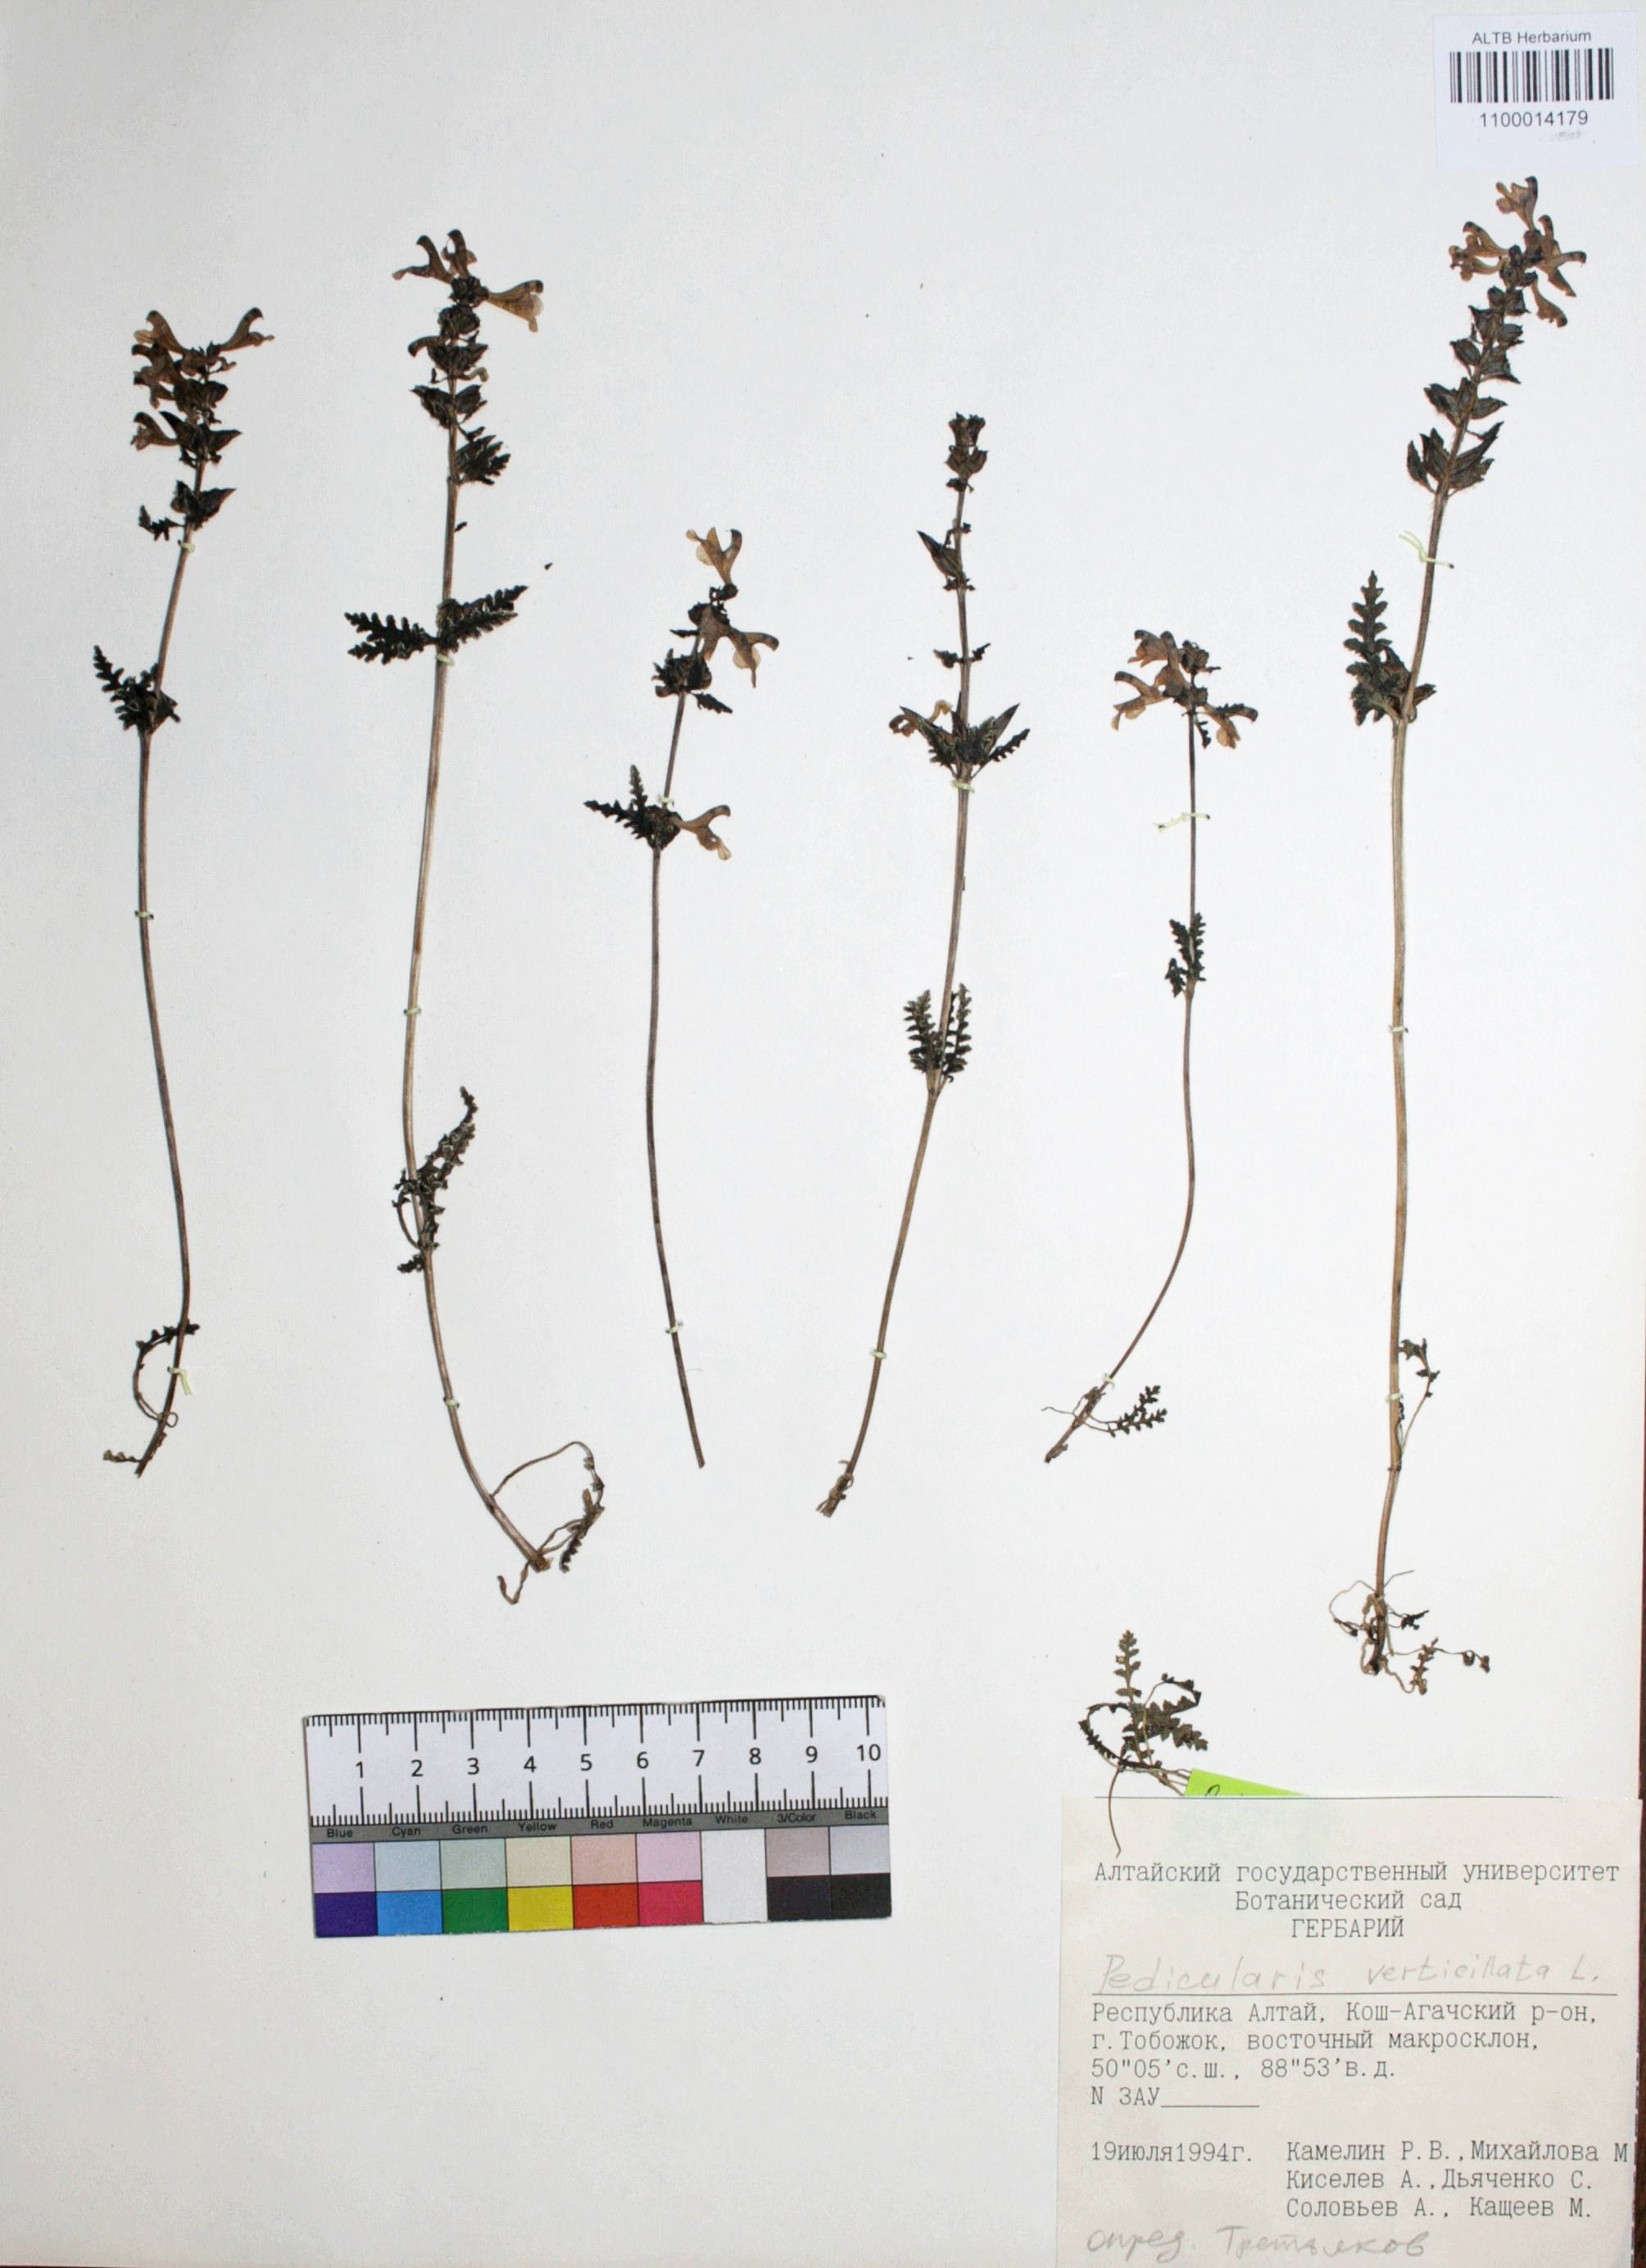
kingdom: Plantae
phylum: Tracheophyta
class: Magnoliopsida
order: Lamiales
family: Orobanchaceae
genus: Pedicularis
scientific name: Pedicularis verticillata
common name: Whorled lousewort
